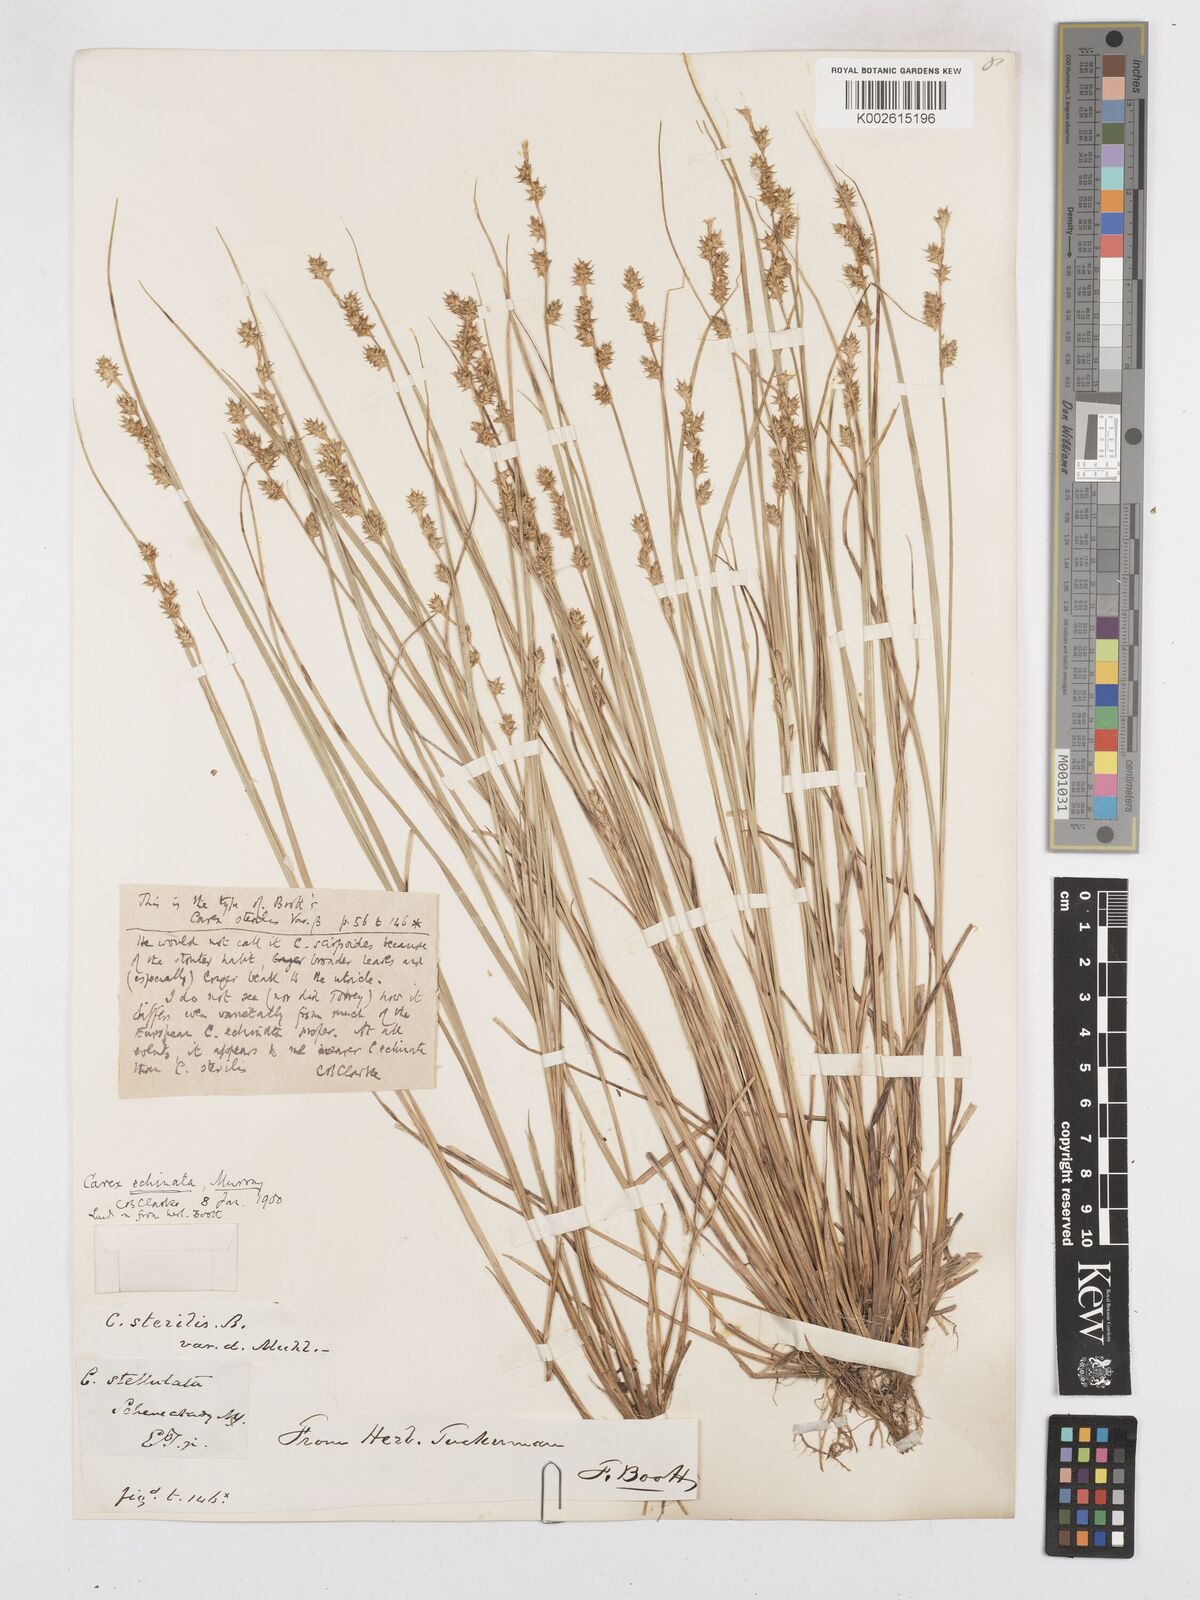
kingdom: Plantae
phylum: Tracheophyta
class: Liliopsida
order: Poales
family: Cyperaceae
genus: Carex
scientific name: Carex echinata
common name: Star sedge
